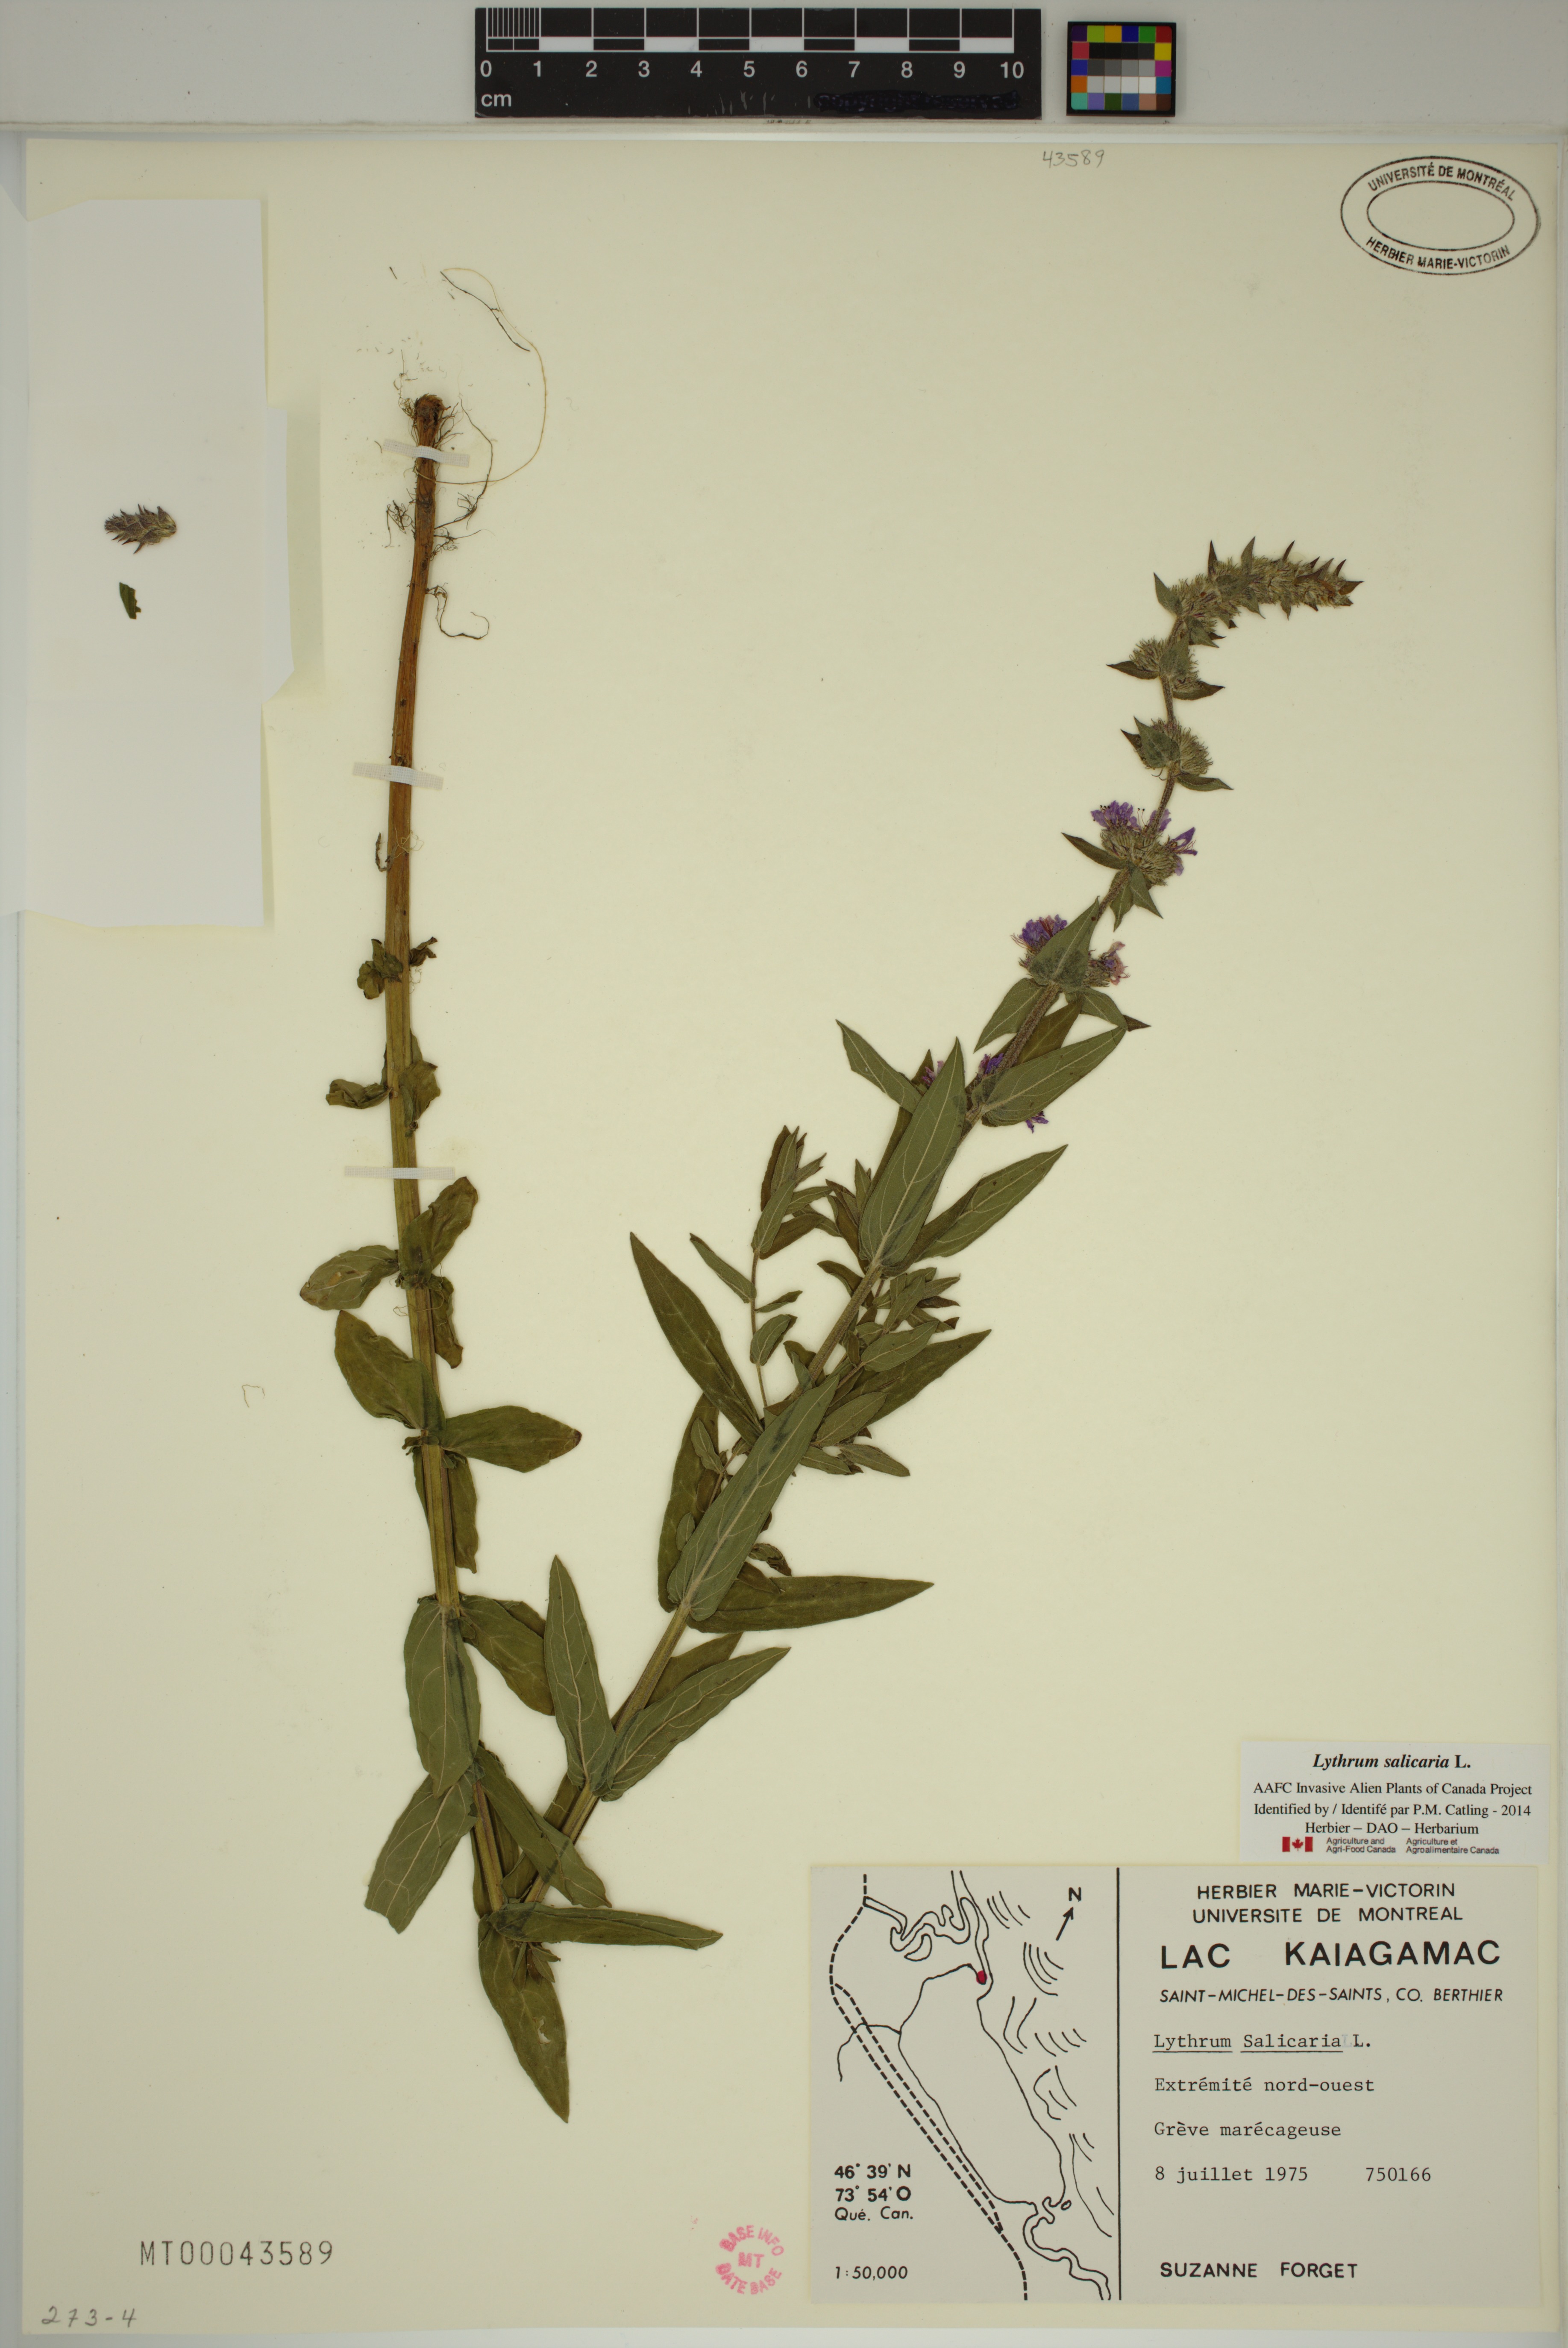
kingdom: Plantae
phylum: Tracheophyta
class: Magnoliopsida
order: Myrtales
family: Lythraceae
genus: Lythrum
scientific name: Lythrum salicaria
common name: Purple loosestrife
